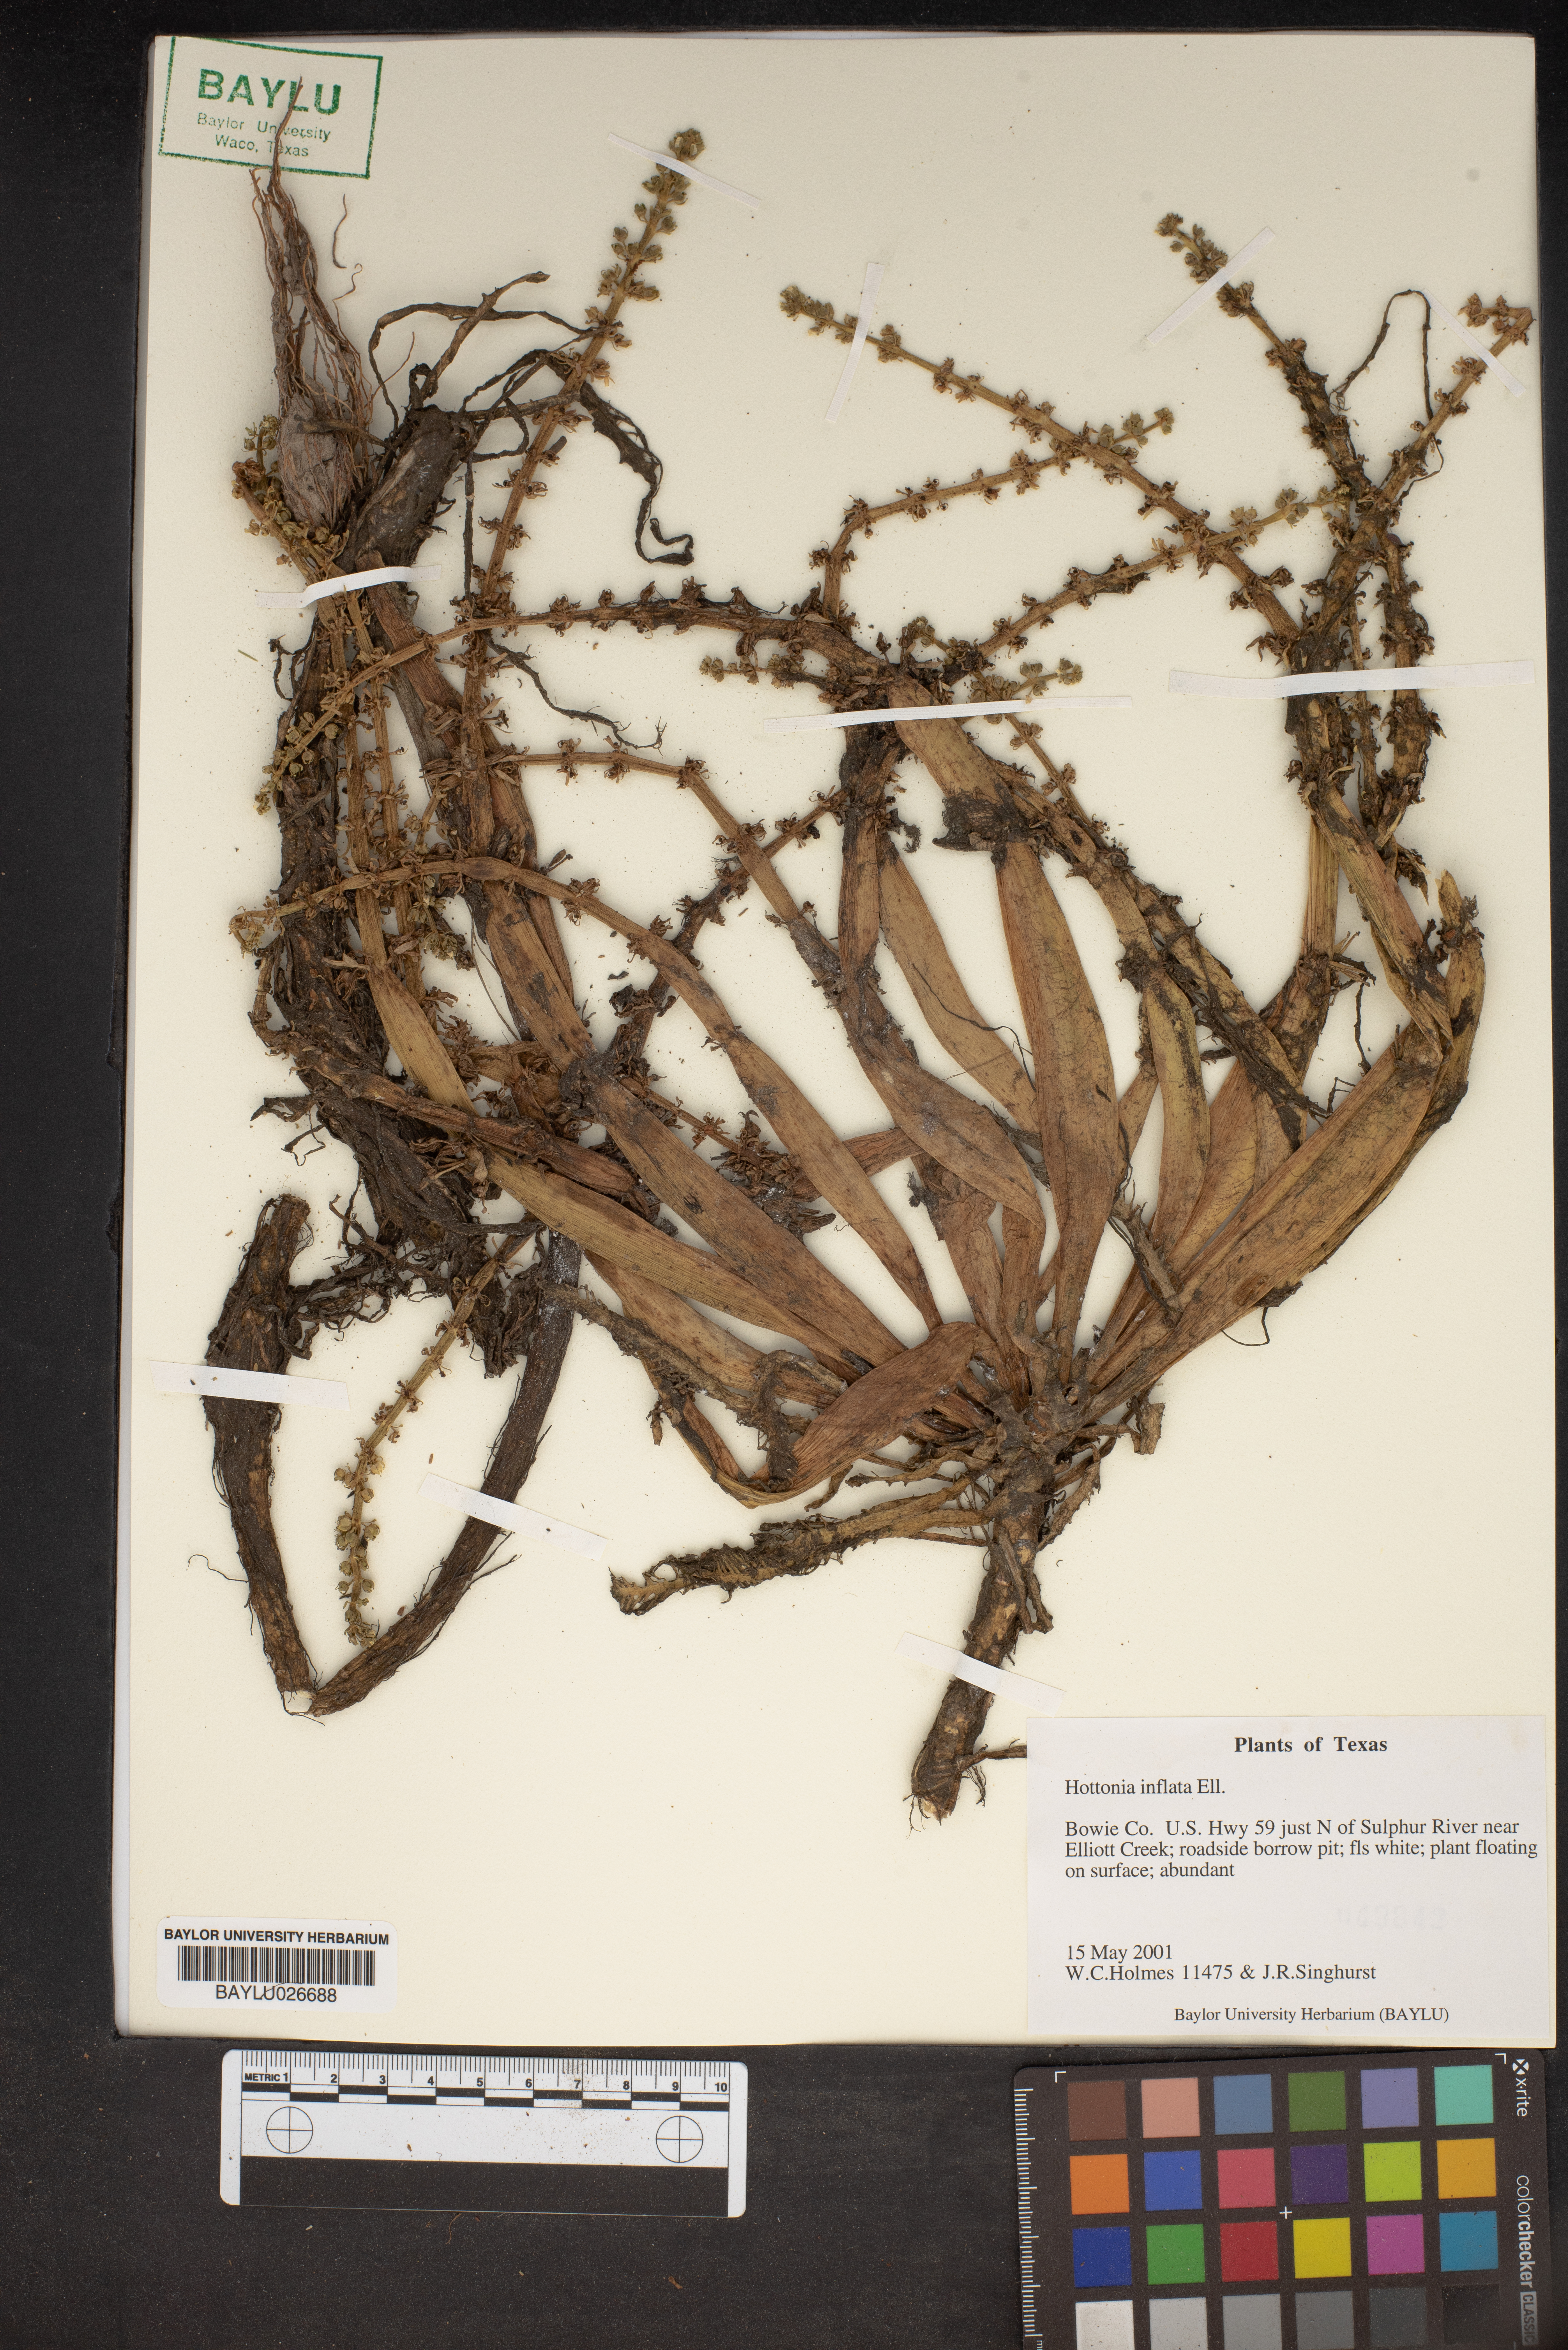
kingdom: Plantae
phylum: Tracheophyta
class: Magnoliopsida
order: Ericales
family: Primulaceae
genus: Hottonia
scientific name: Hottonia inflata
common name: American featherfoil
